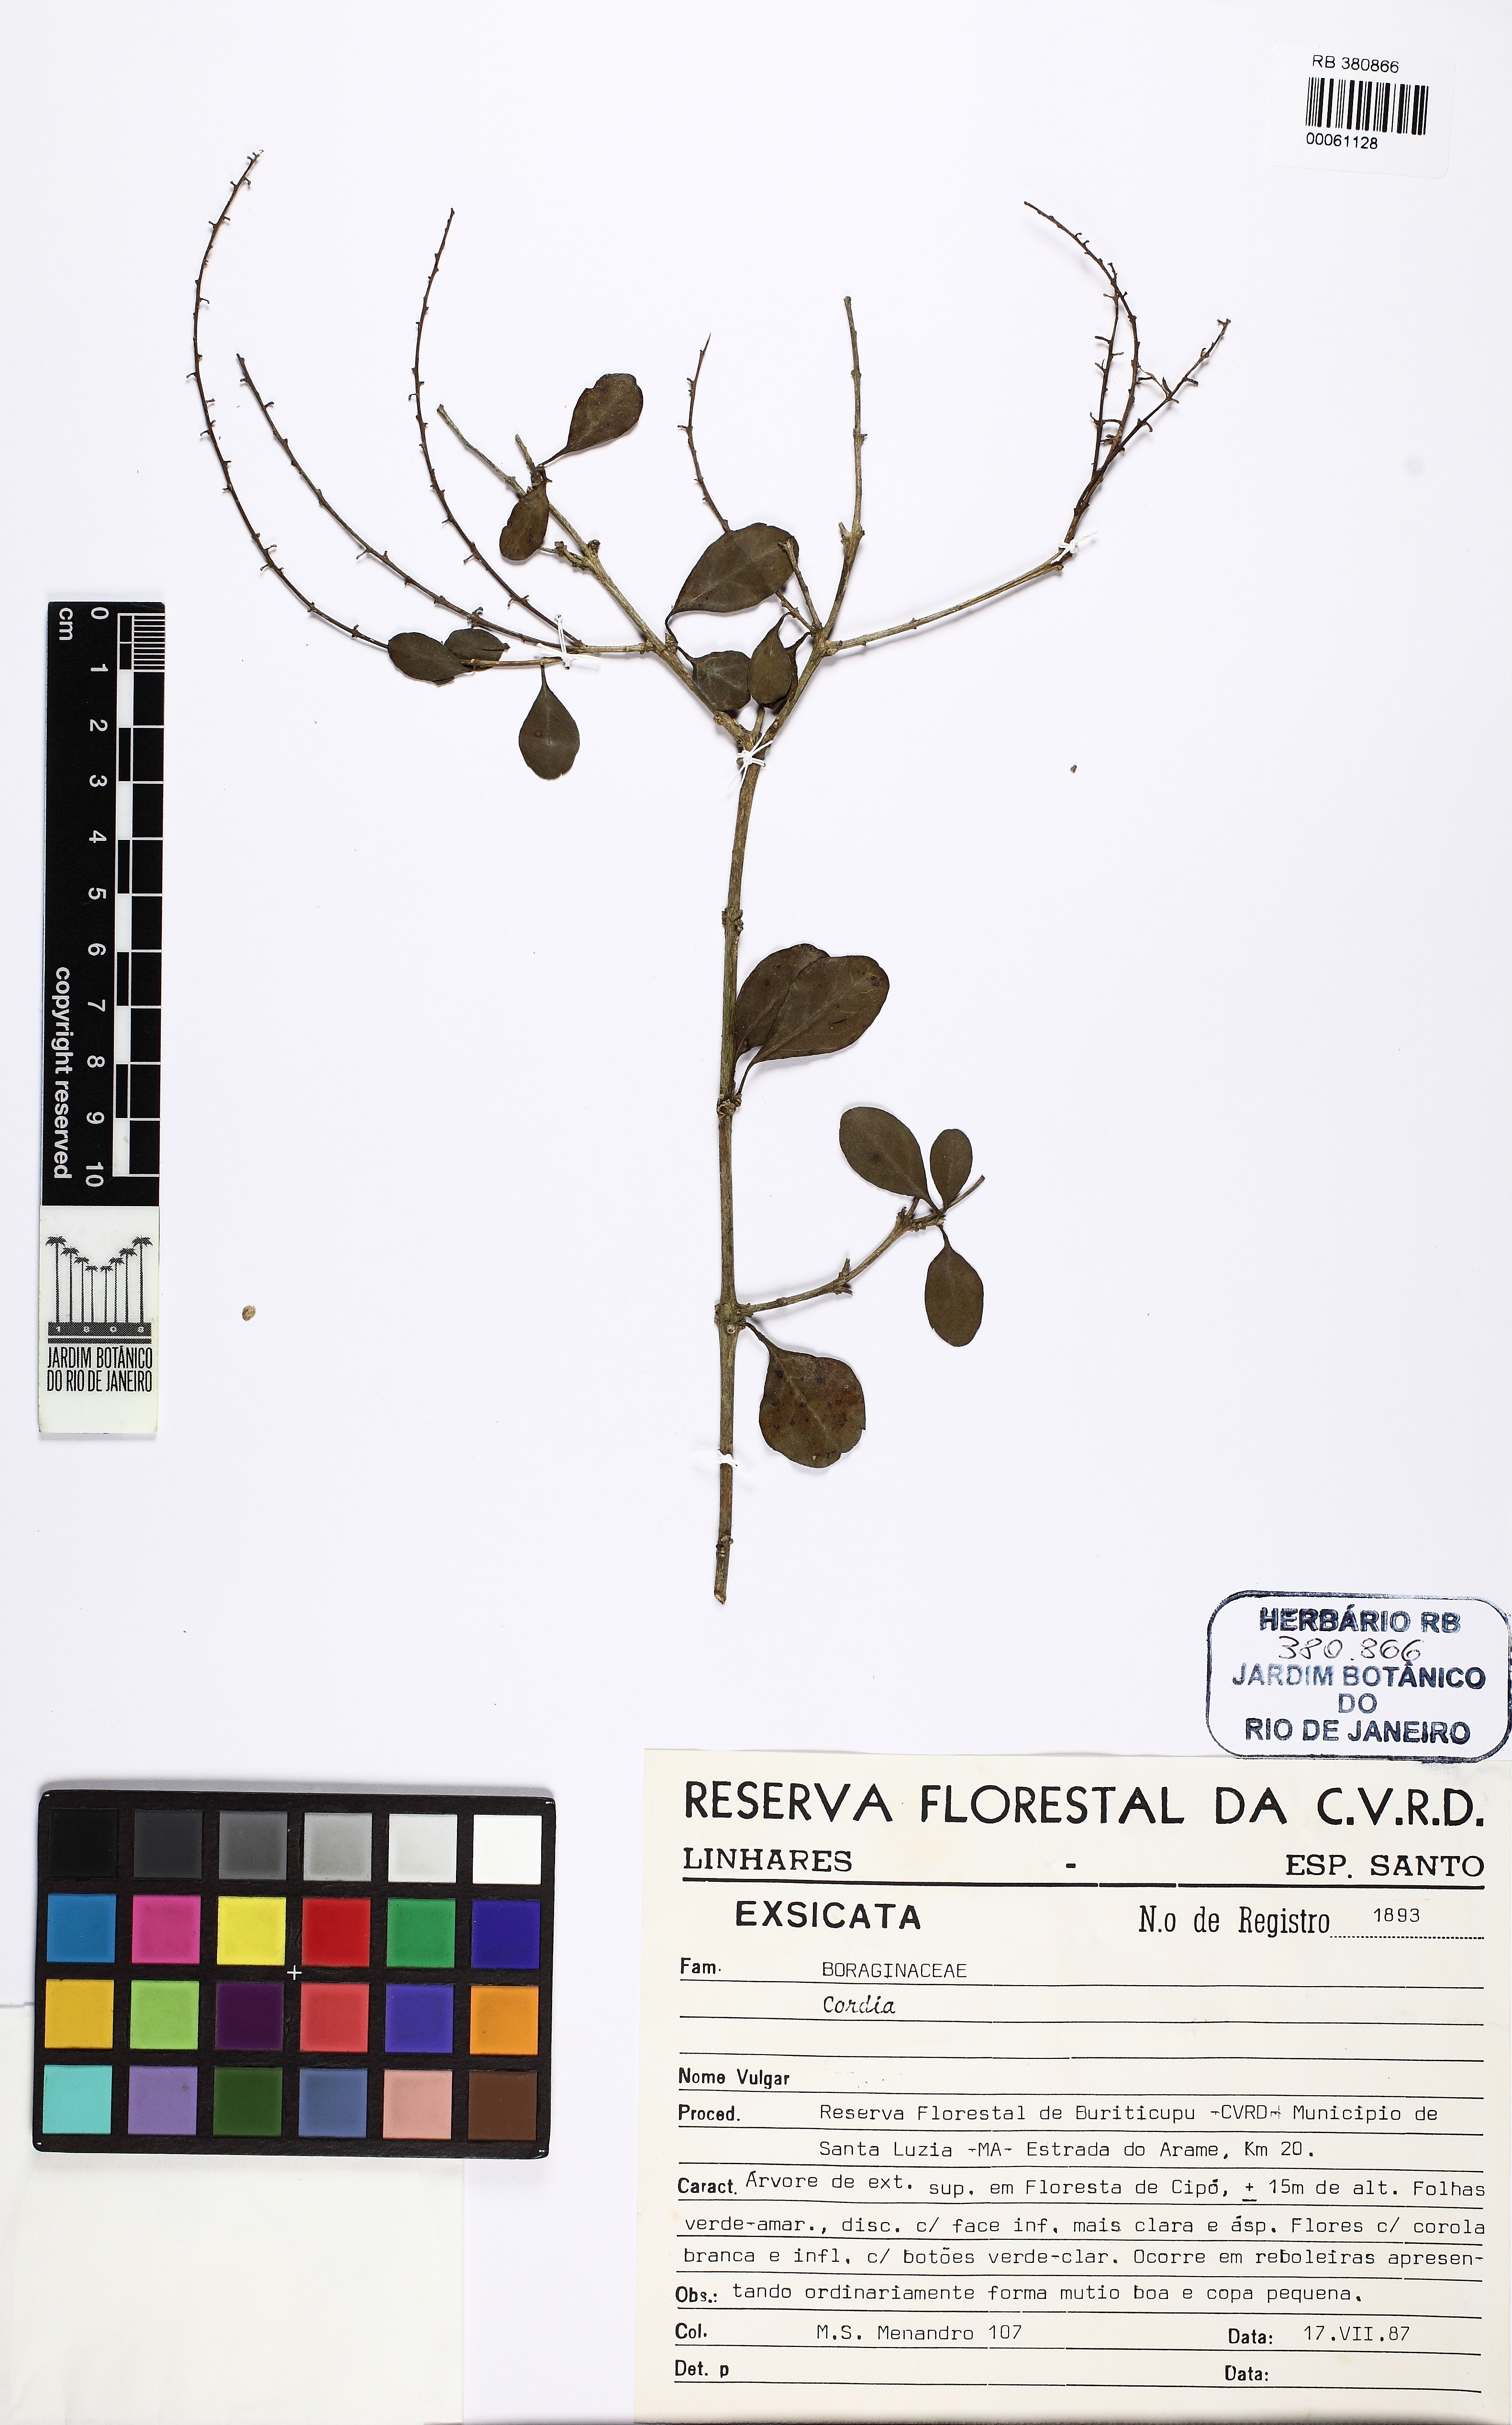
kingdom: Plantae
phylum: Tracheophyta
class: Magnoliopsida
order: Boraginales
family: Cordiaceae
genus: Cordia
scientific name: Cordia
